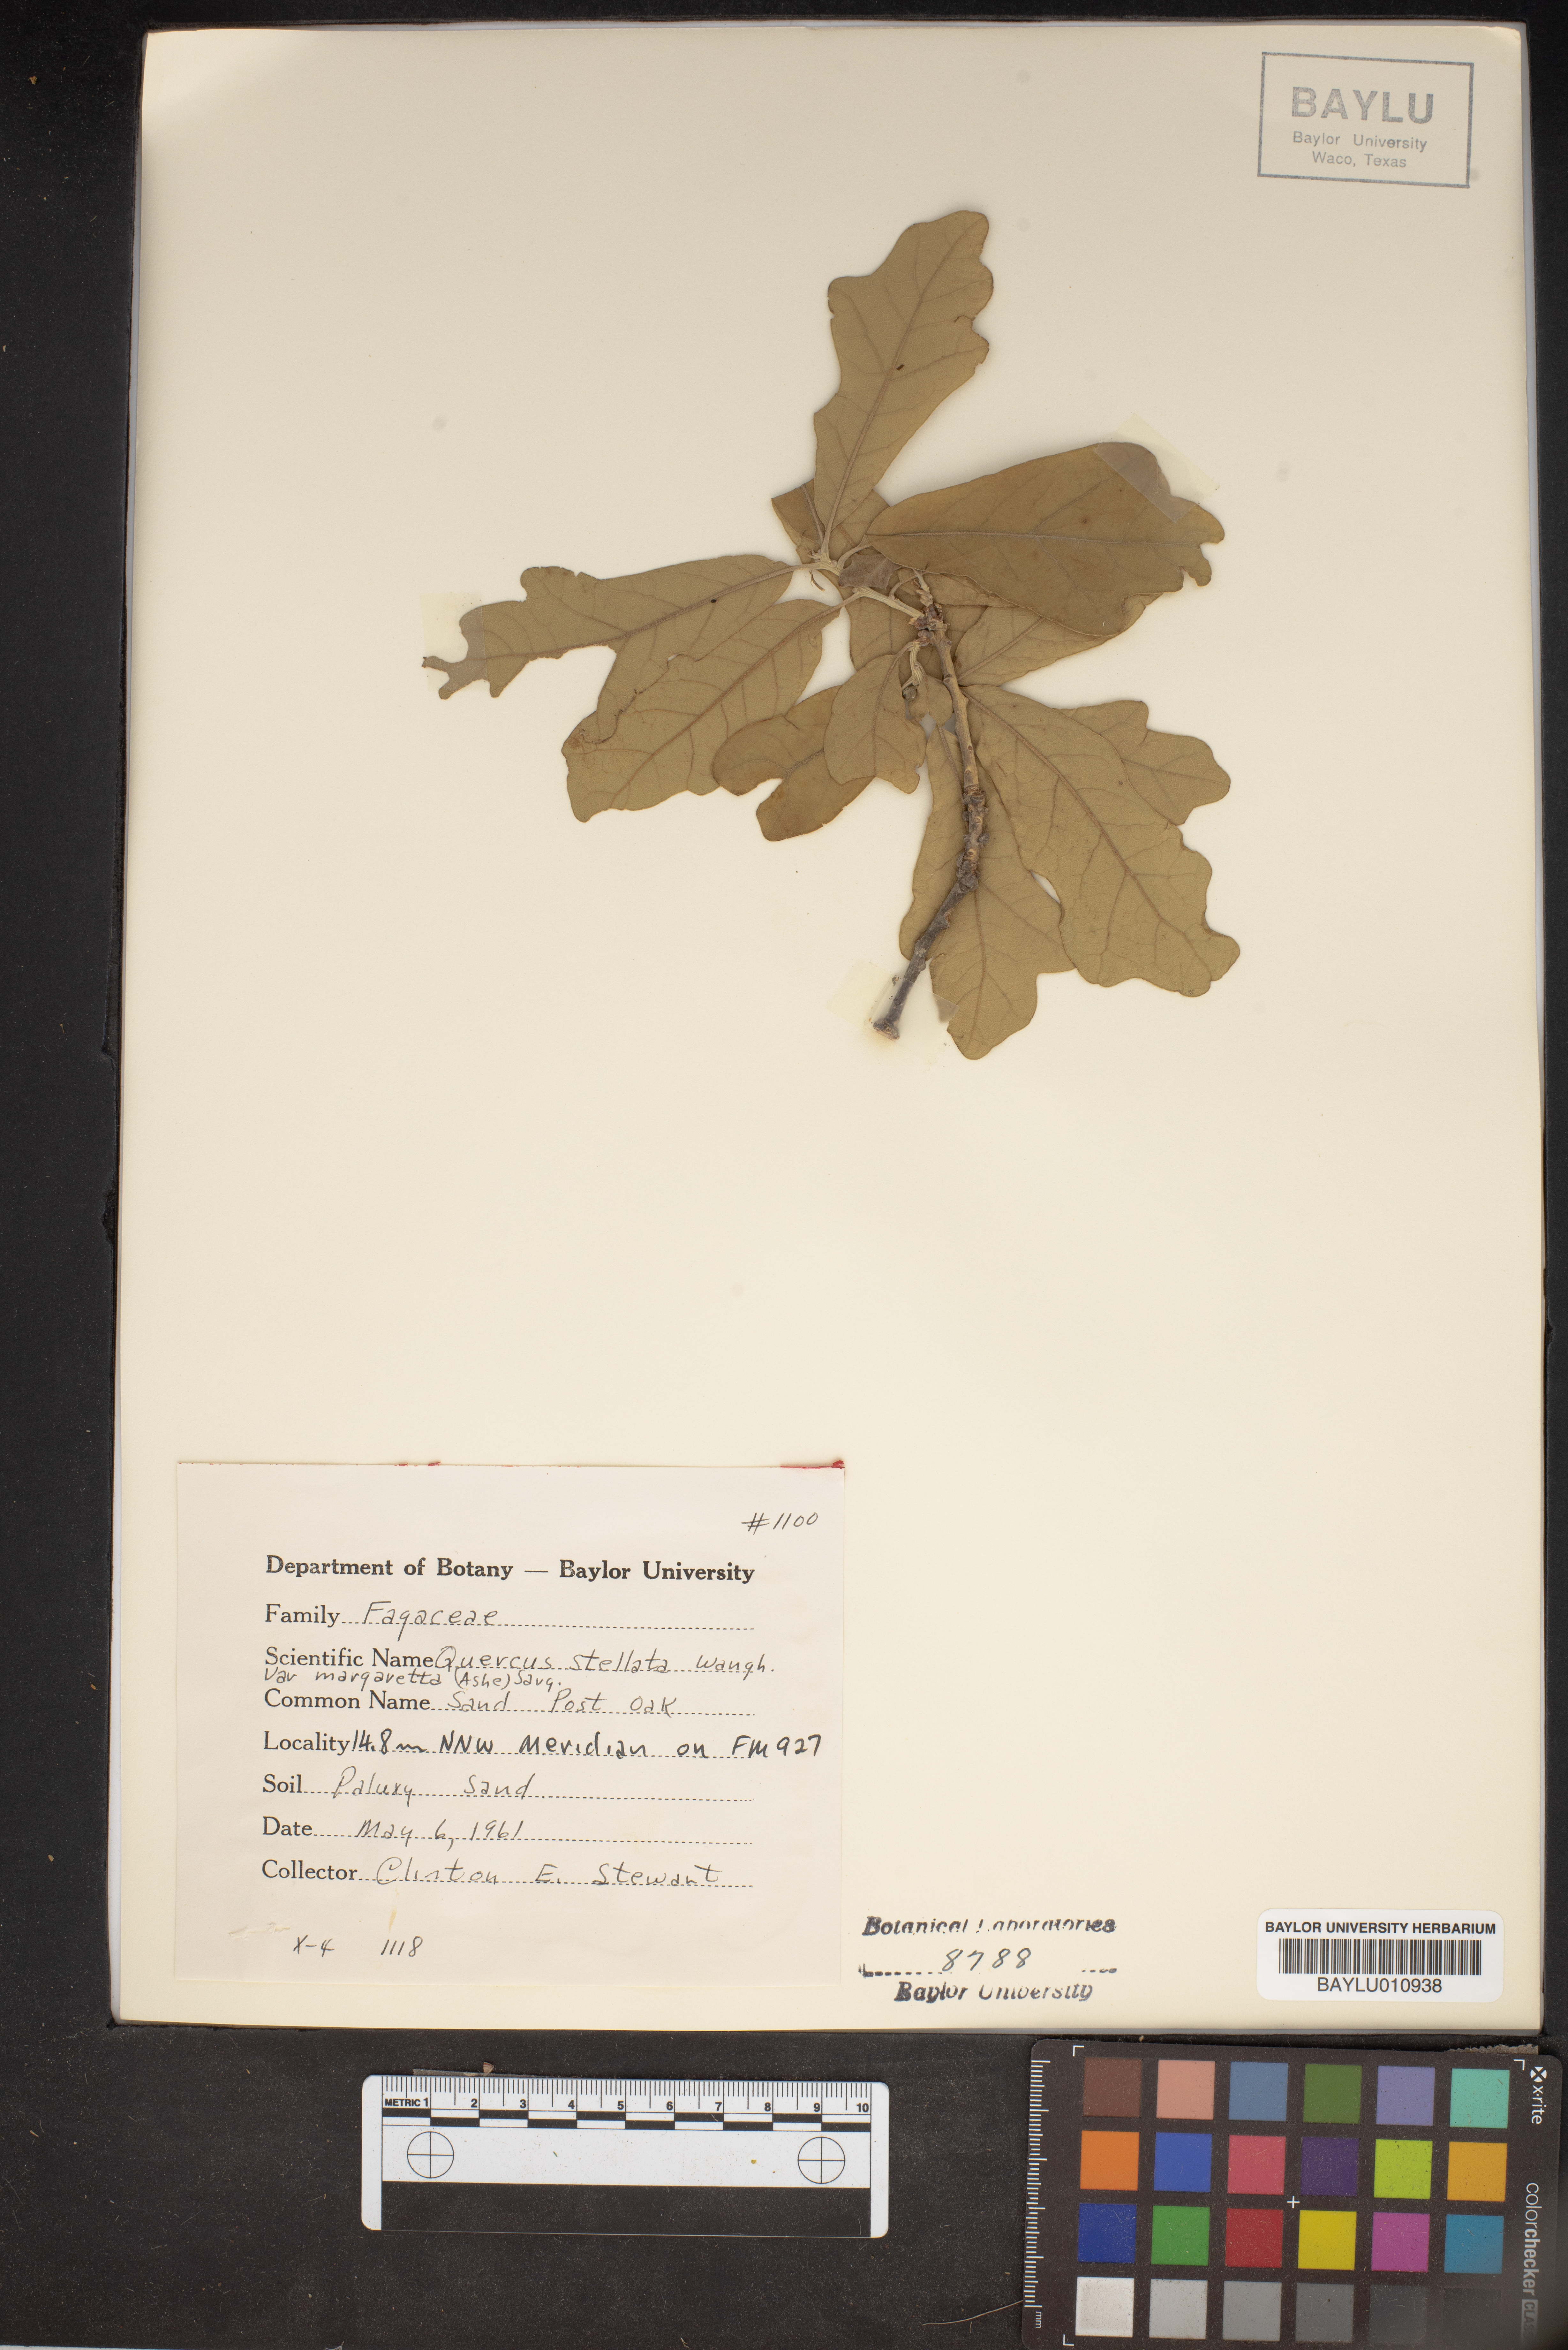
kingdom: Plantae
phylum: Tracheophyta
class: Magnoliopsida
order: Fagales
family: Fagaceae
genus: Quercus
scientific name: Quercus margaretta
